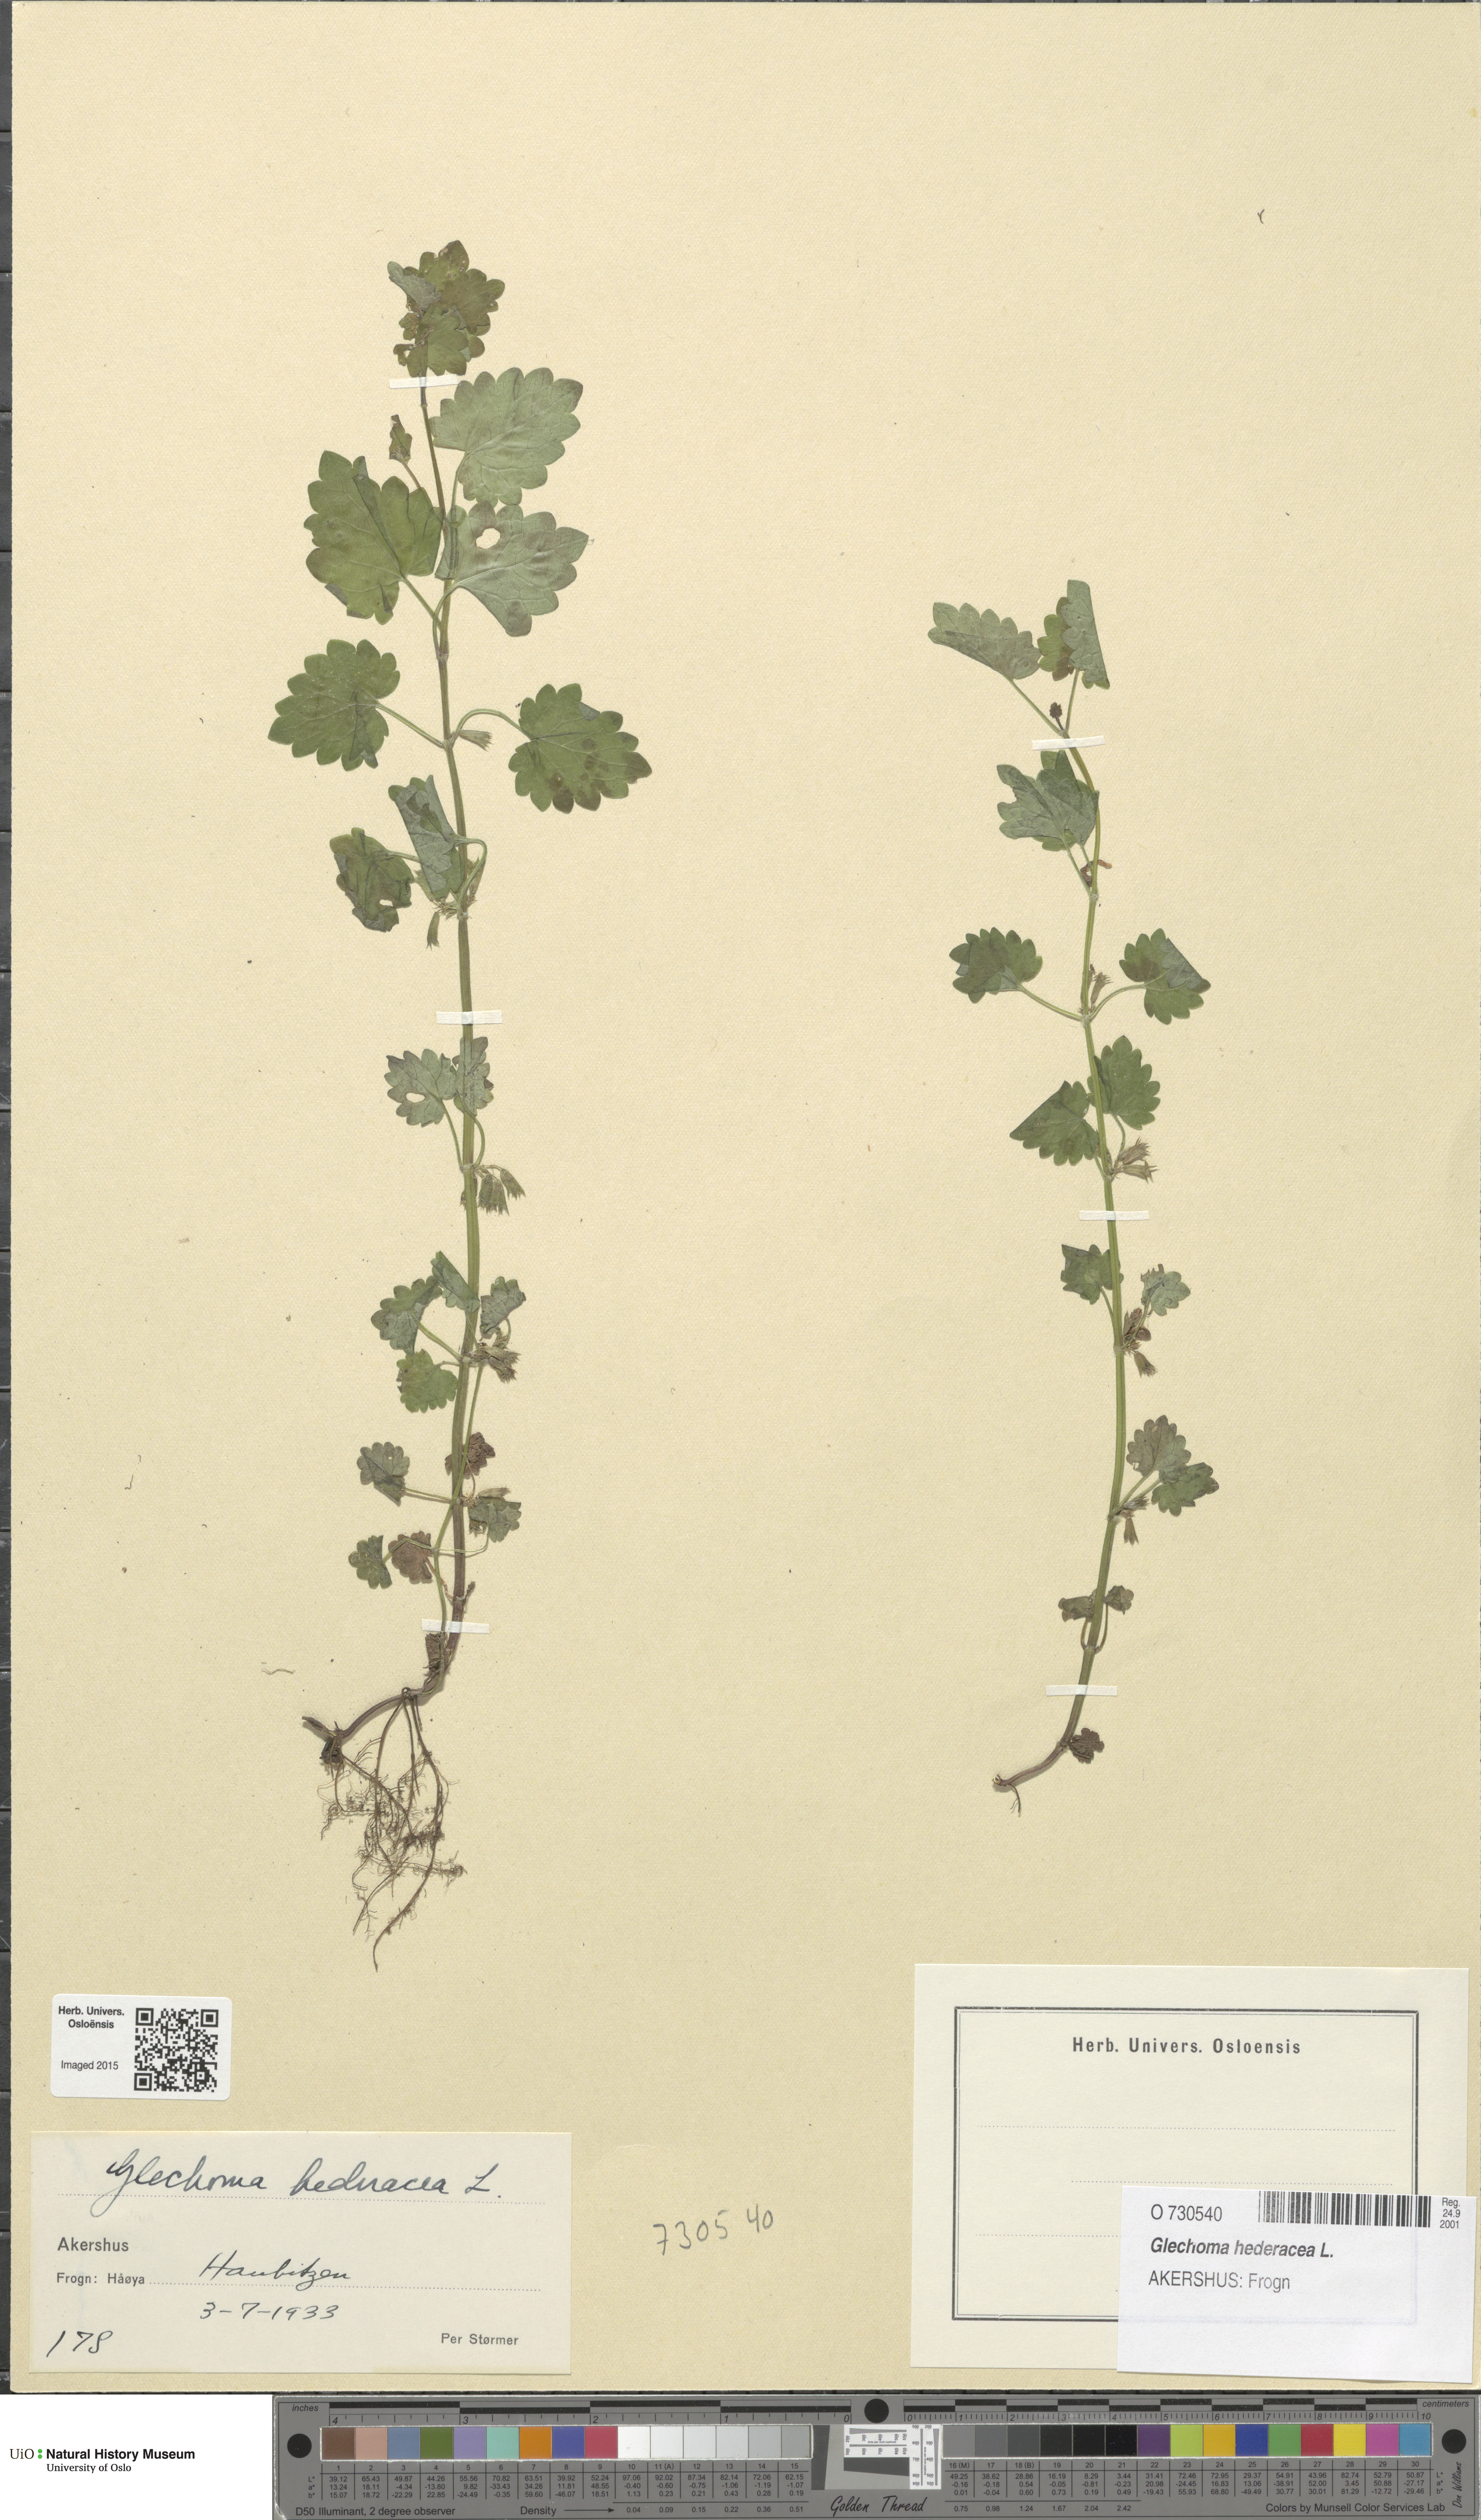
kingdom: Plantae
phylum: Tracheophyta
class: Magnoliopsida
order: Lamiales
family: Lamiaceae
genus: Glechoma
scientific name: Glechoma hederacea
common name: Ground ivy
